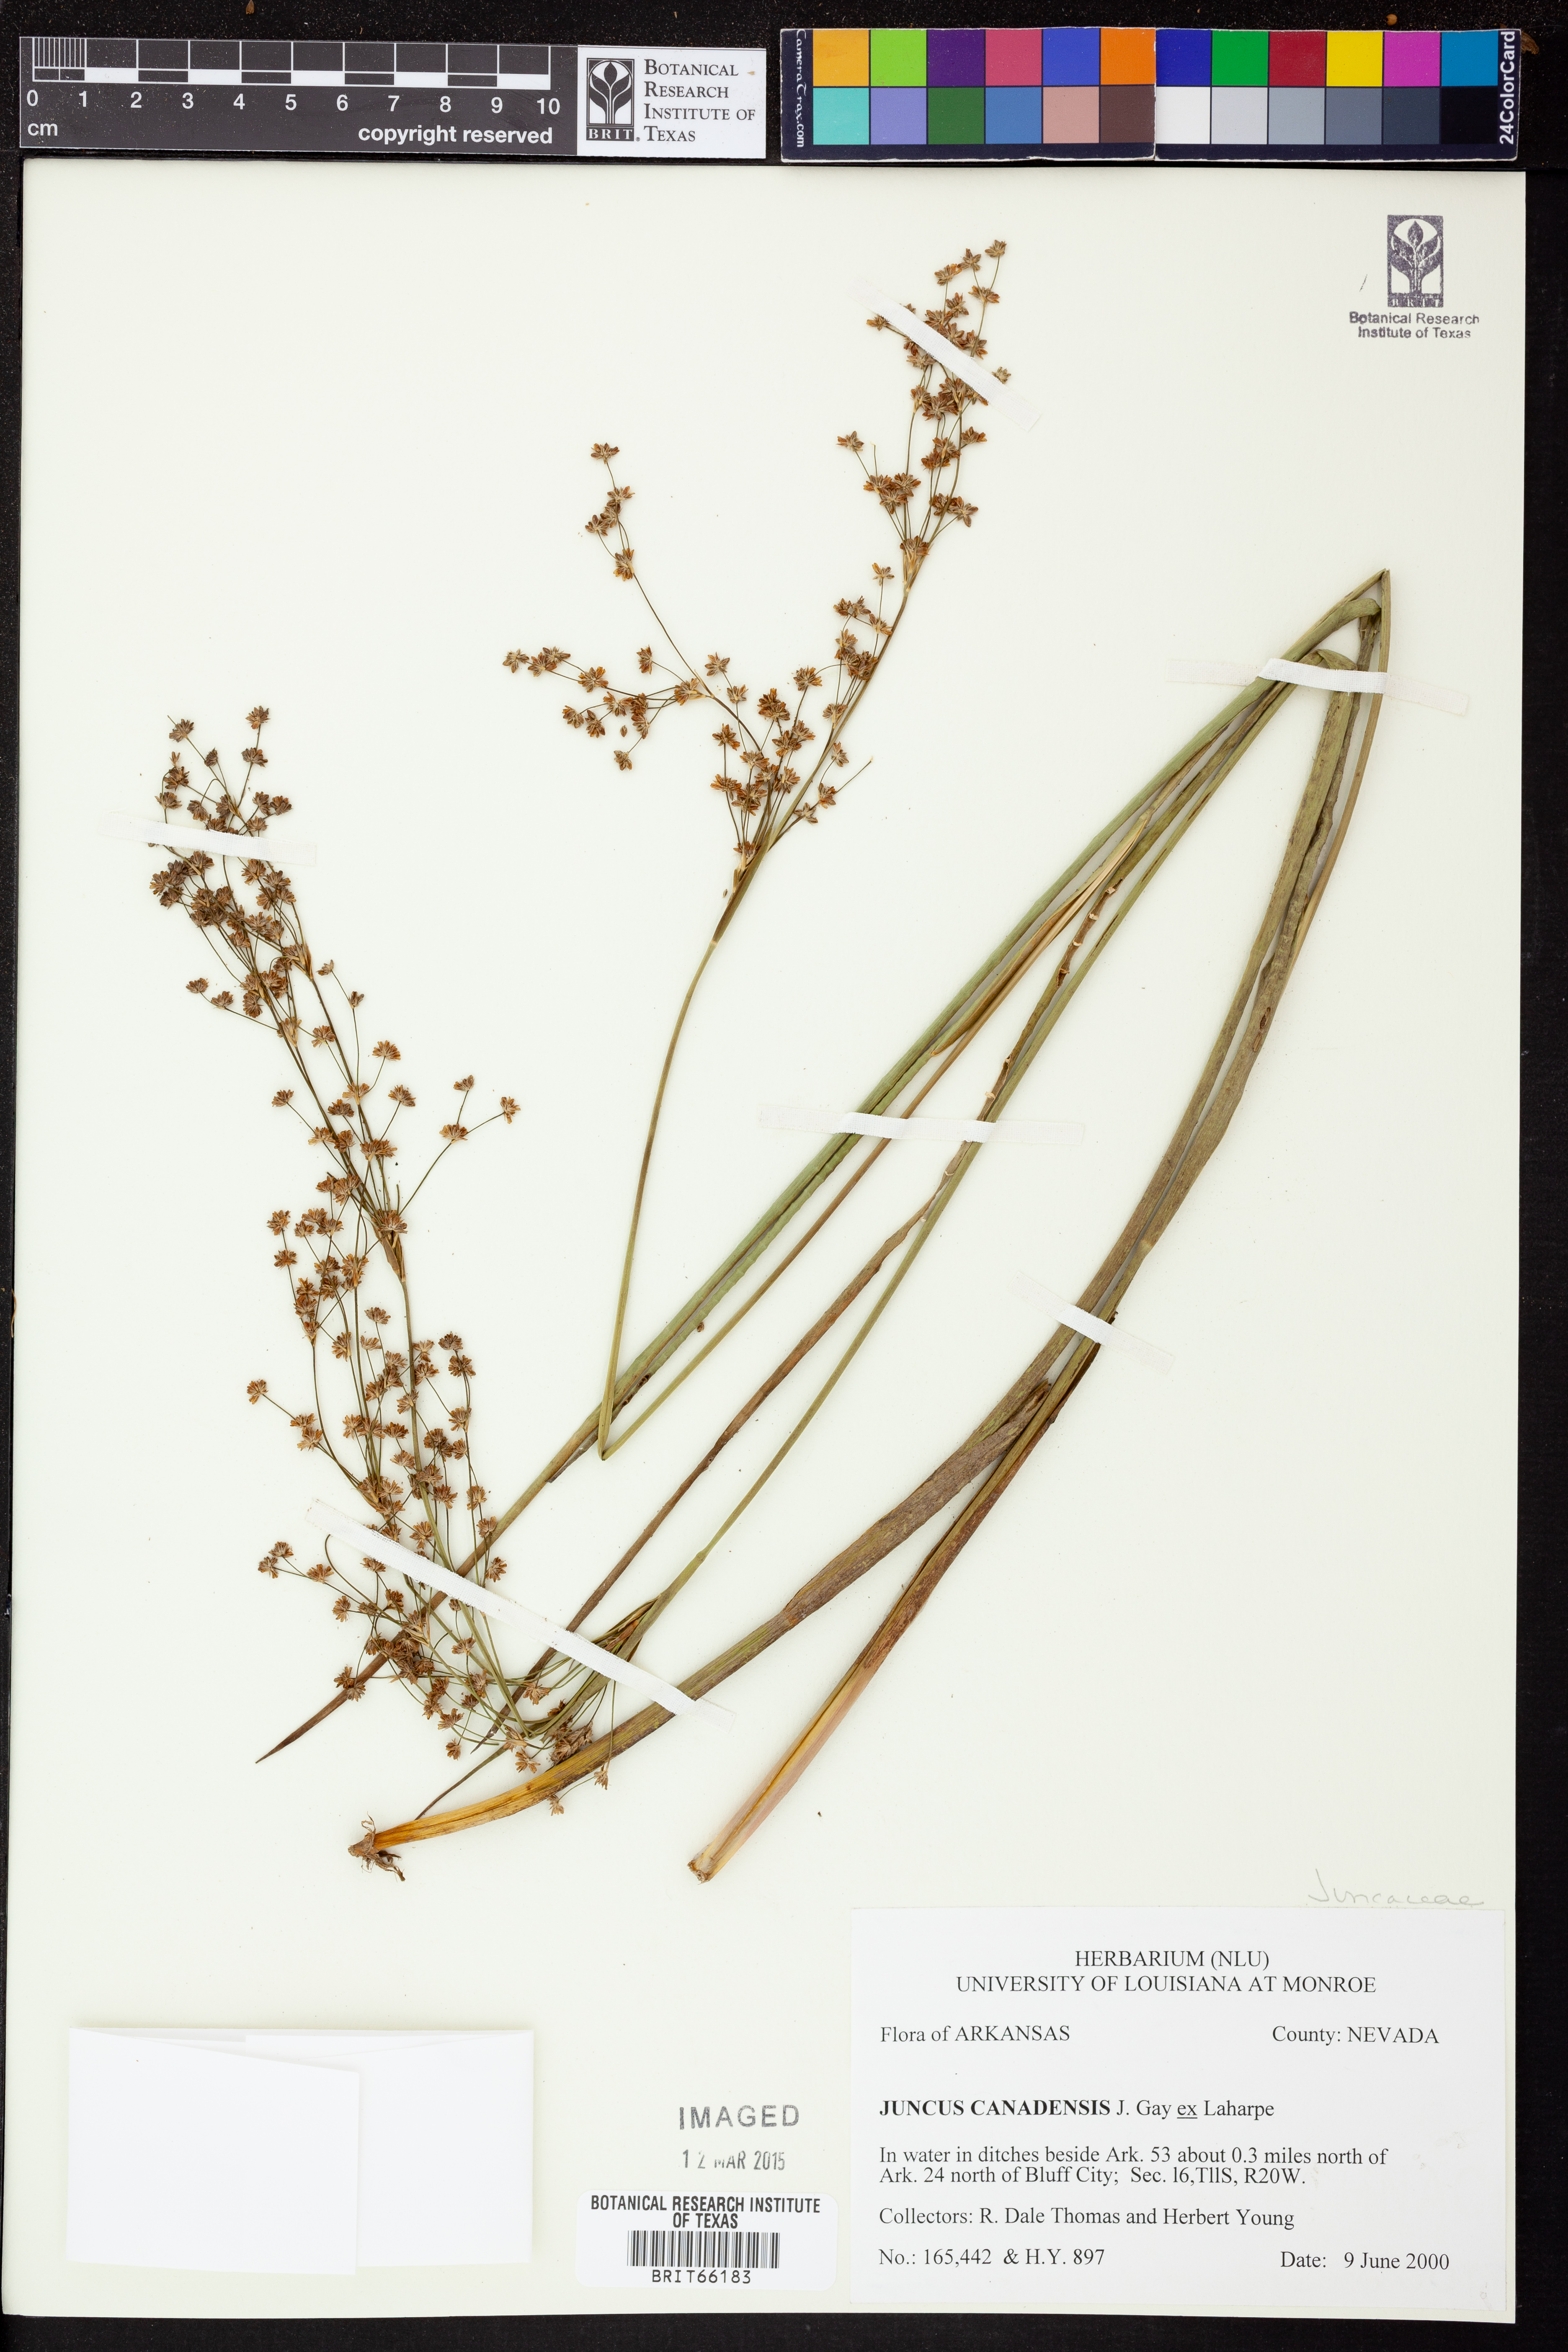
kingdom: Plantae
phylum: Tracheophyta
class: Liliopsida
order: Poales
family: Juncaceae
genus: Juncus
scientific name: Juncus canadensis
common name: Canada rush
